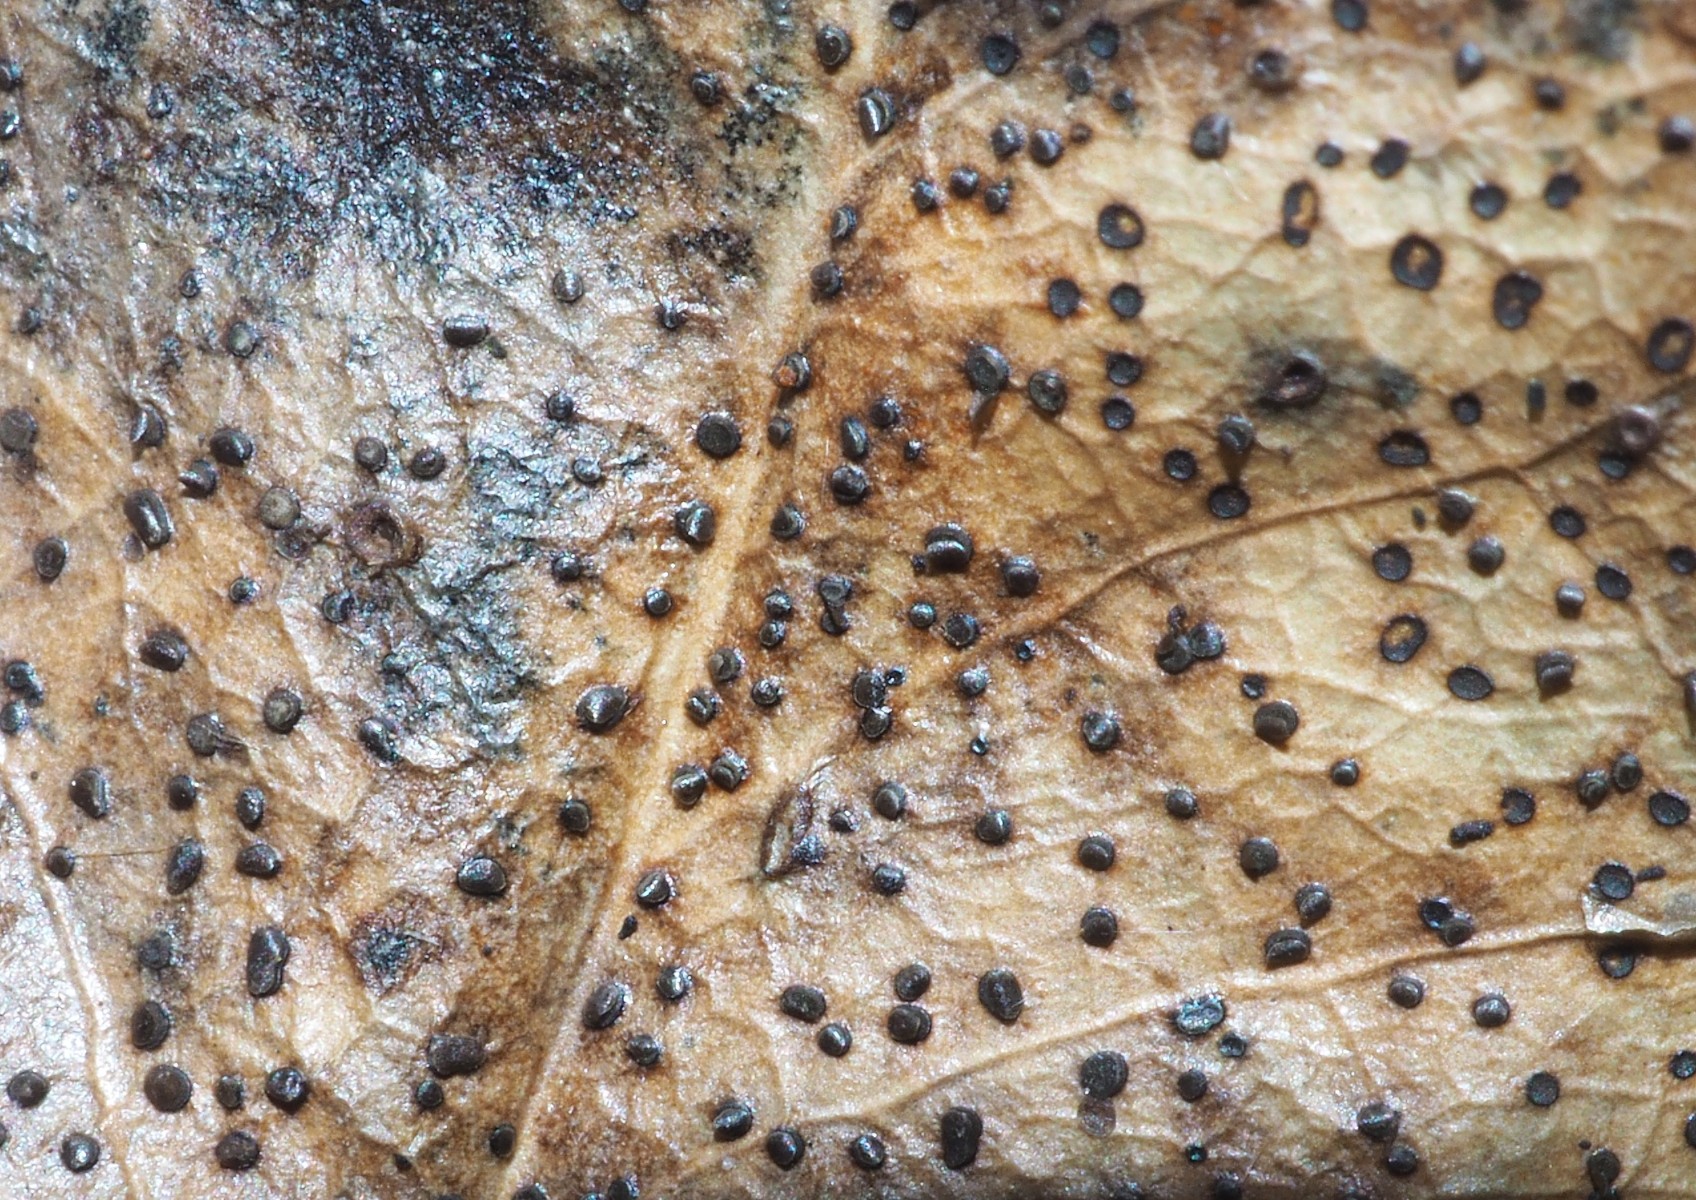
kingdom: Fungi
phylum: Ascomycota
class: Leotiomycetes
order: Helotiales
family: Cenangiaceae
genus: Trochila
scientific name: Trochila ilicina
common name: kristtorn-lågskive
